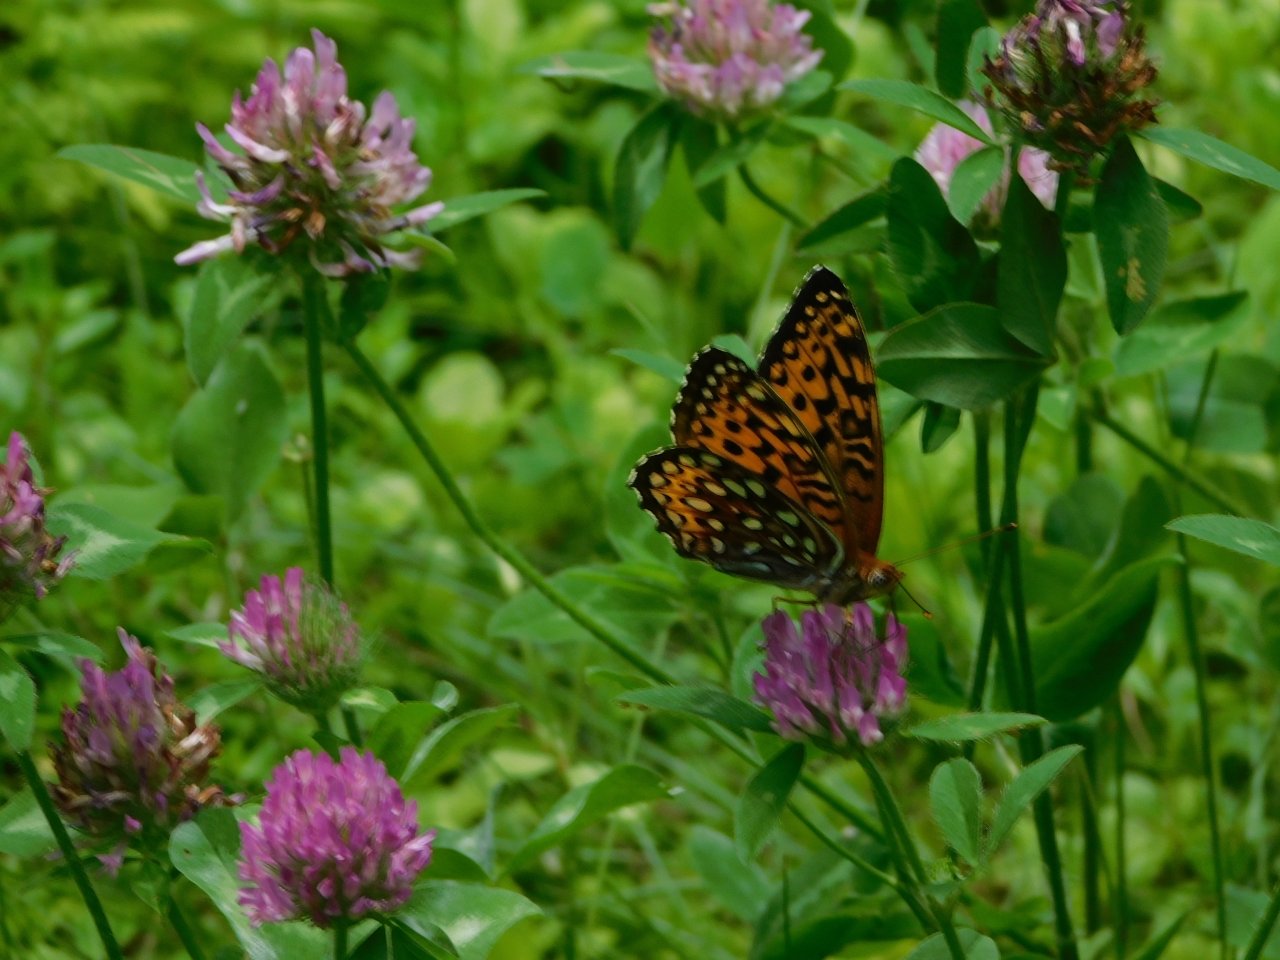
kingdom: Animalia
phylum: Arthropoda
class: Insecta
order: Lepidoptera
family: Nymphalidae
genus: Speyeria
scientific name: Speyeria atlantis
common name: Atlantis Fritillary
